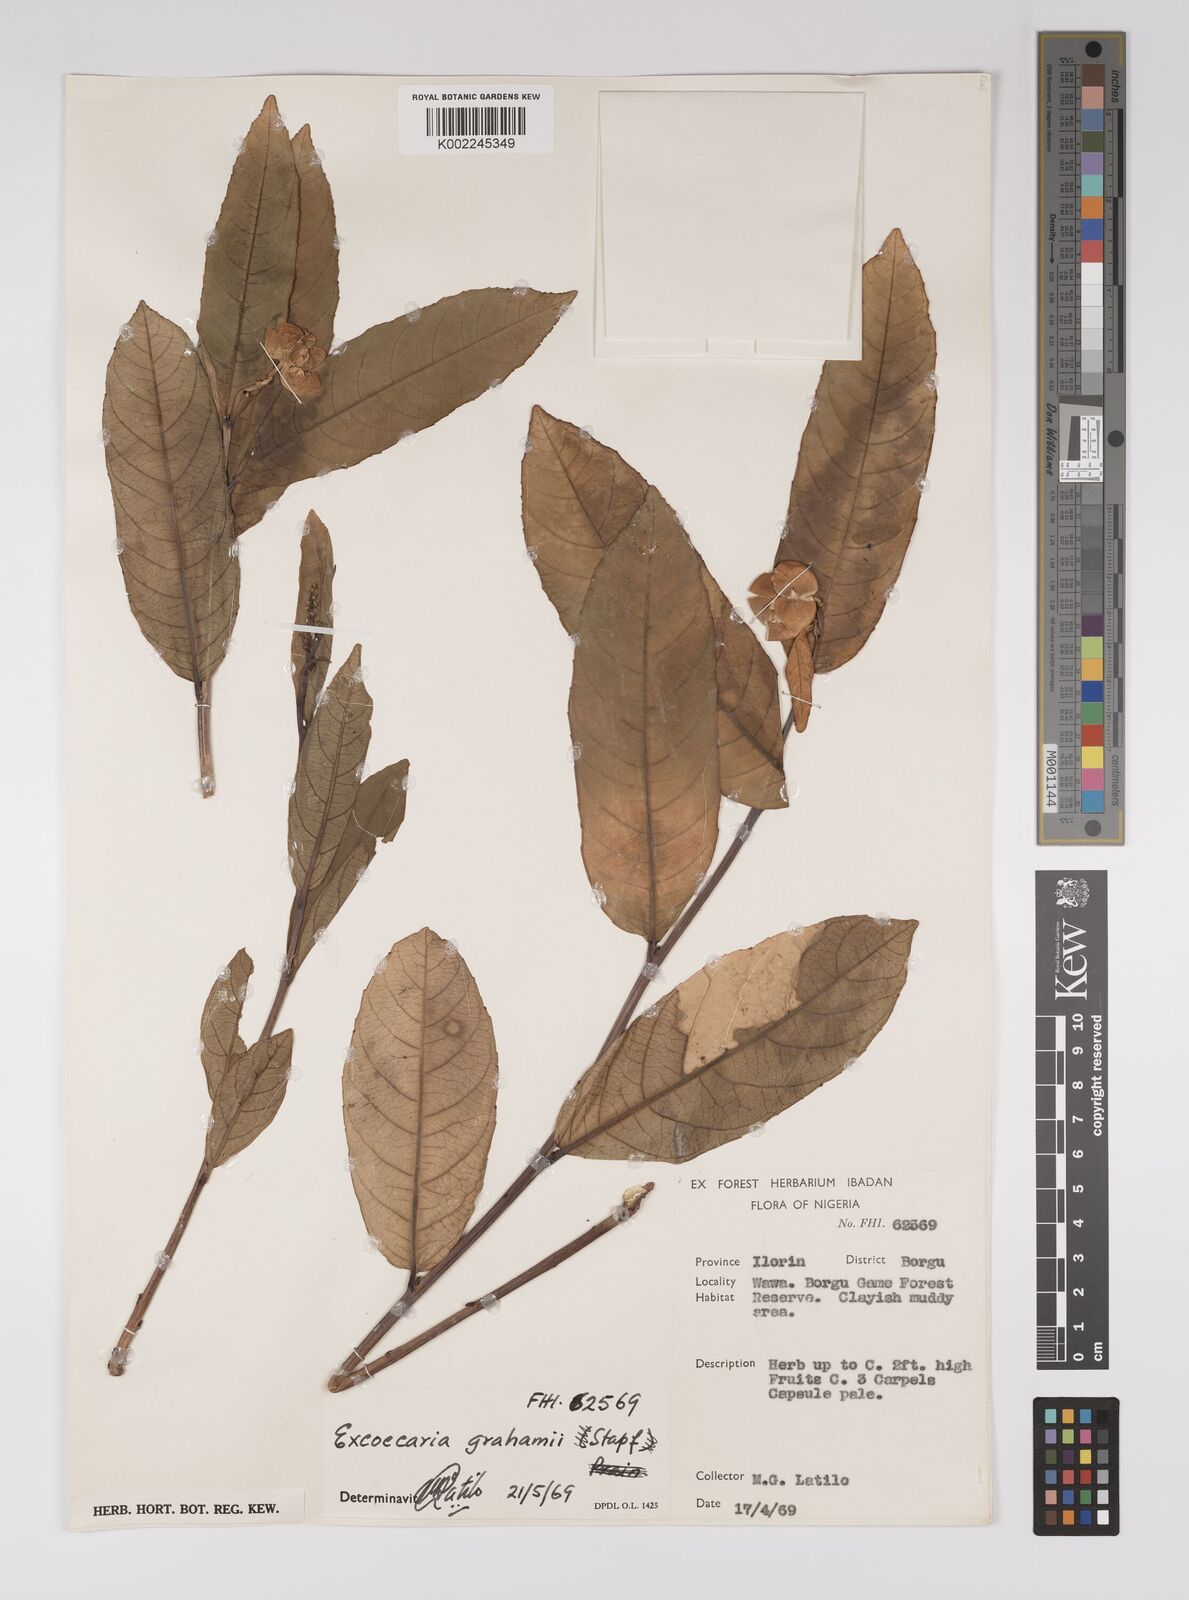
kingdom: Plantae
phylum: Tracheophyta
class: Magnoliopsida
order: Malpighiales
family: Euphorbiaceae
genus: Excoecaria
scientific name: Excoecaria grahamii
